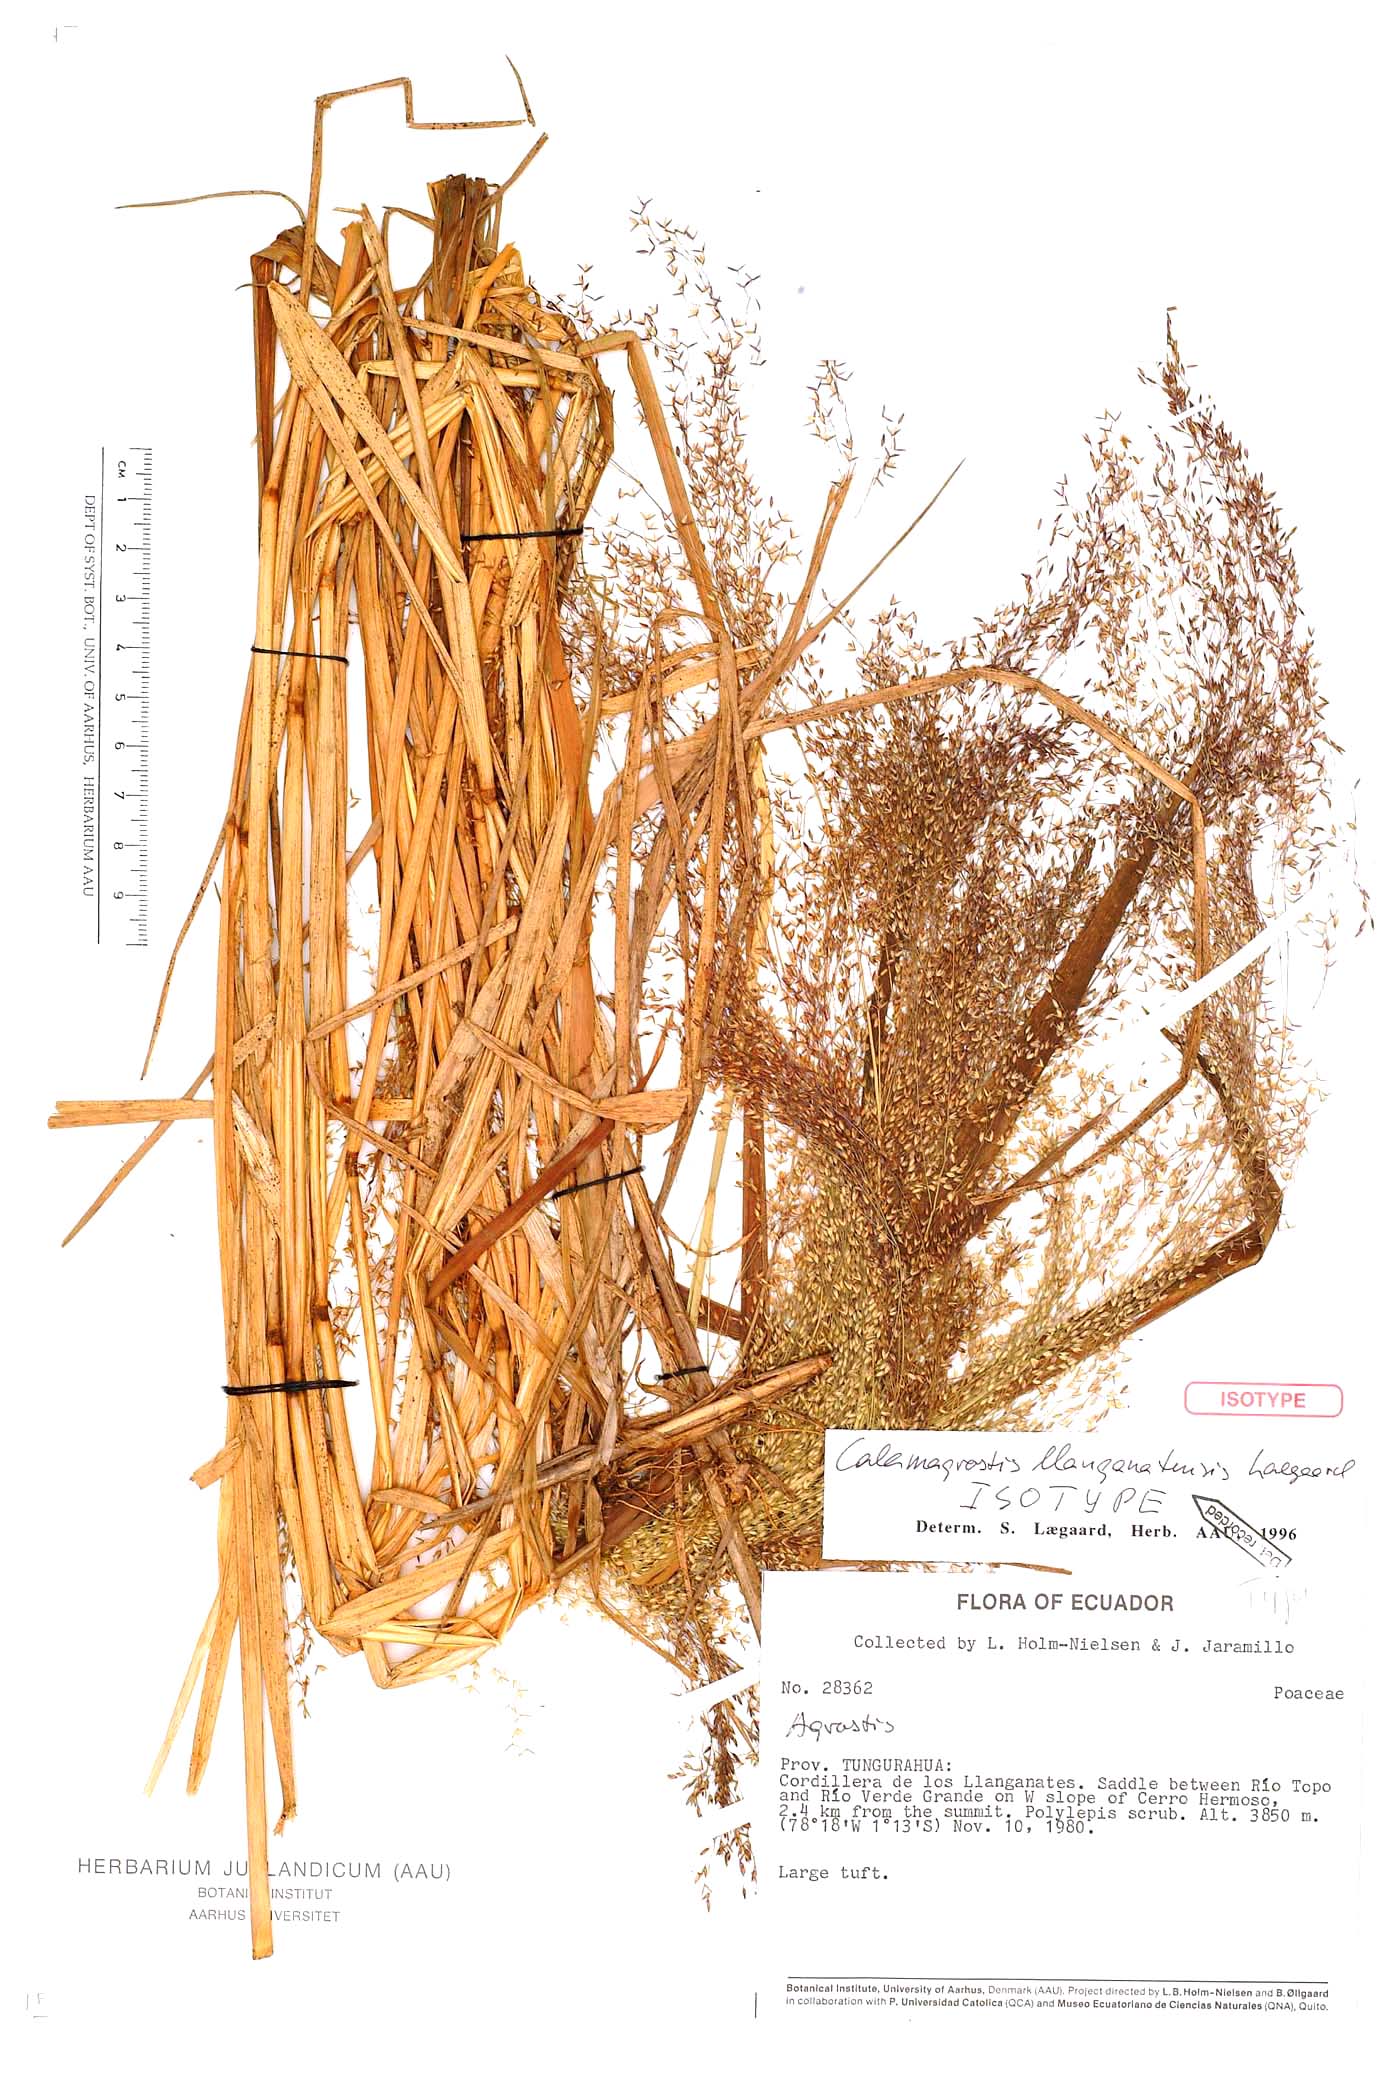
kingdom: Plantae
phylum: Tracheophyta
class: Liliopsida
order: Poales
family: Poaceae
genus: Calamagrostis
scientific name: Calamagrostis llanganatensis
